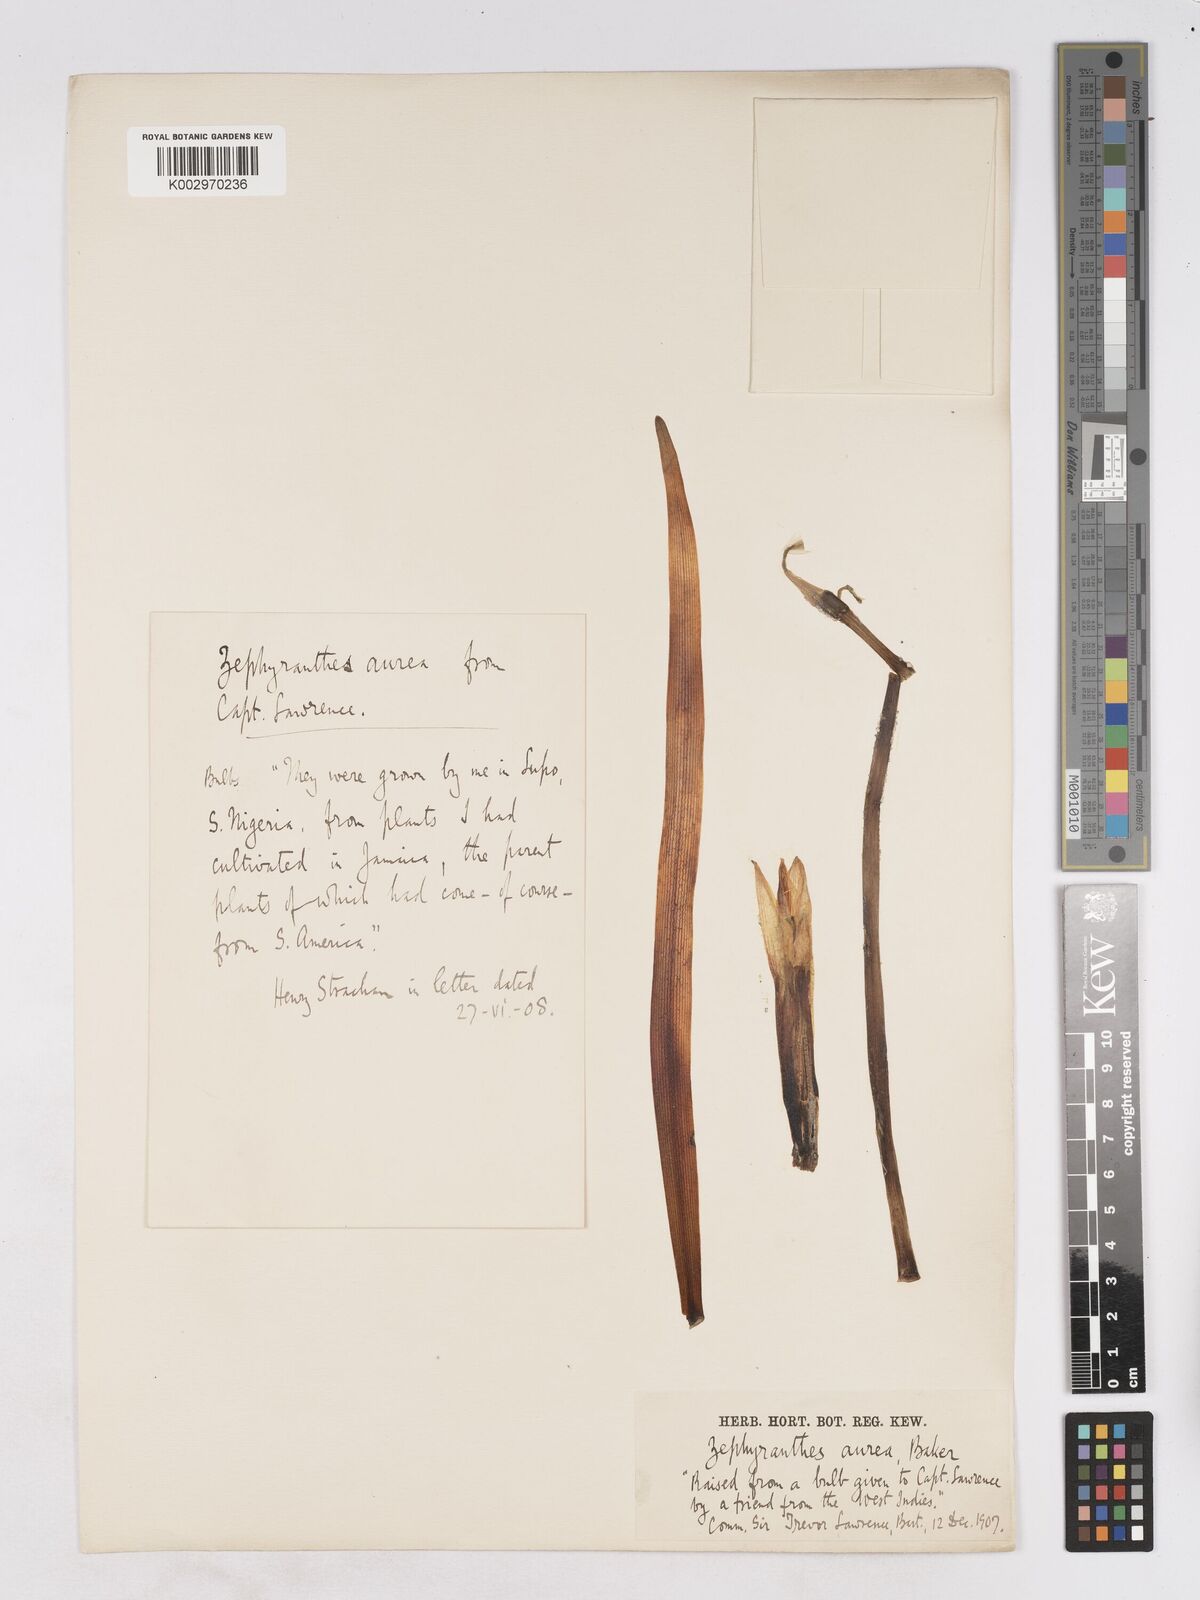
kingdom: Plantae
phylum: Tracheophyta
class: Liliopsida
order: Asparagales
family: Amaryllidaceae
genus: Pyrolirion
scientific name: Pyrolirion tubiflorum
